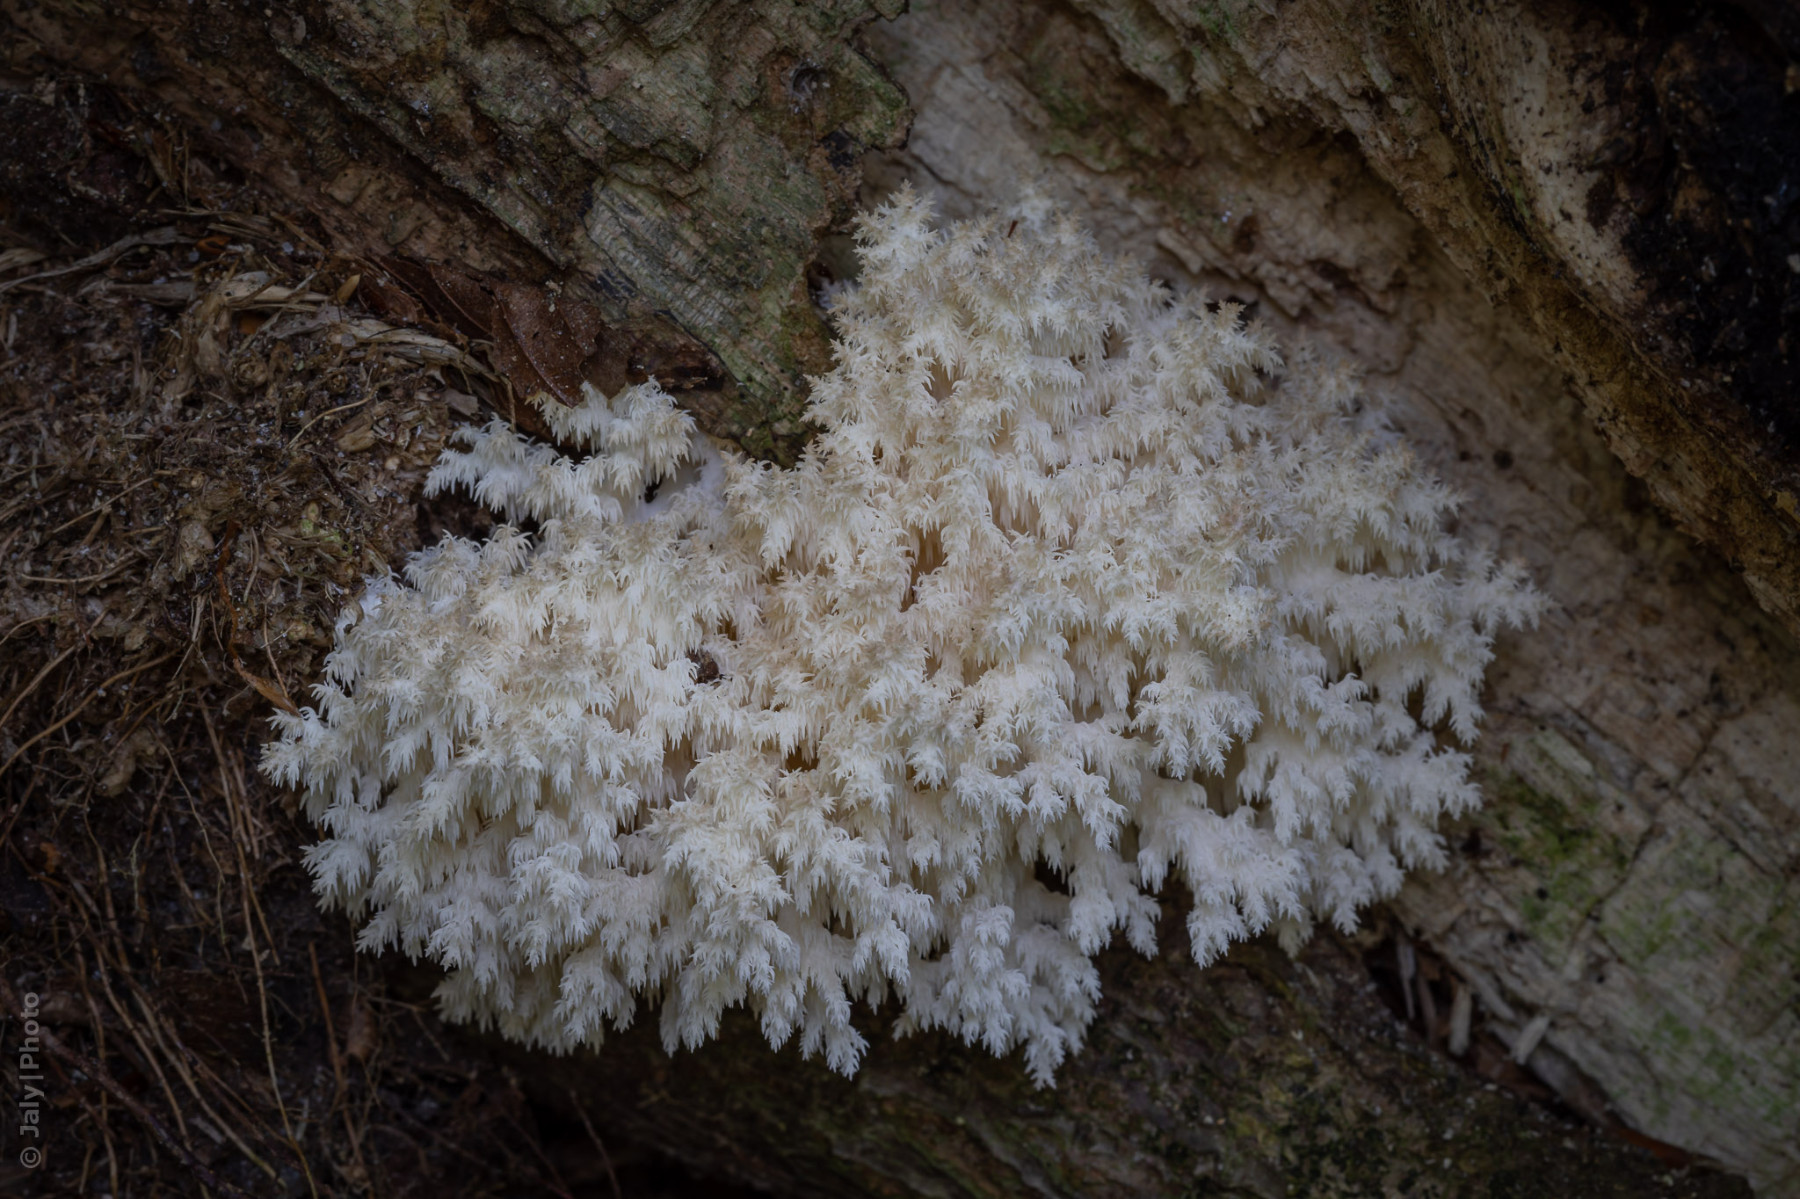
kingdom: Fungi
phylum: Basidiomycota
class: Agaricomycetes
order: Russulales
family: Hericiaceae
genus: Hericium
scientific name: Hericium coralloides
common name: koralpigsvamp
